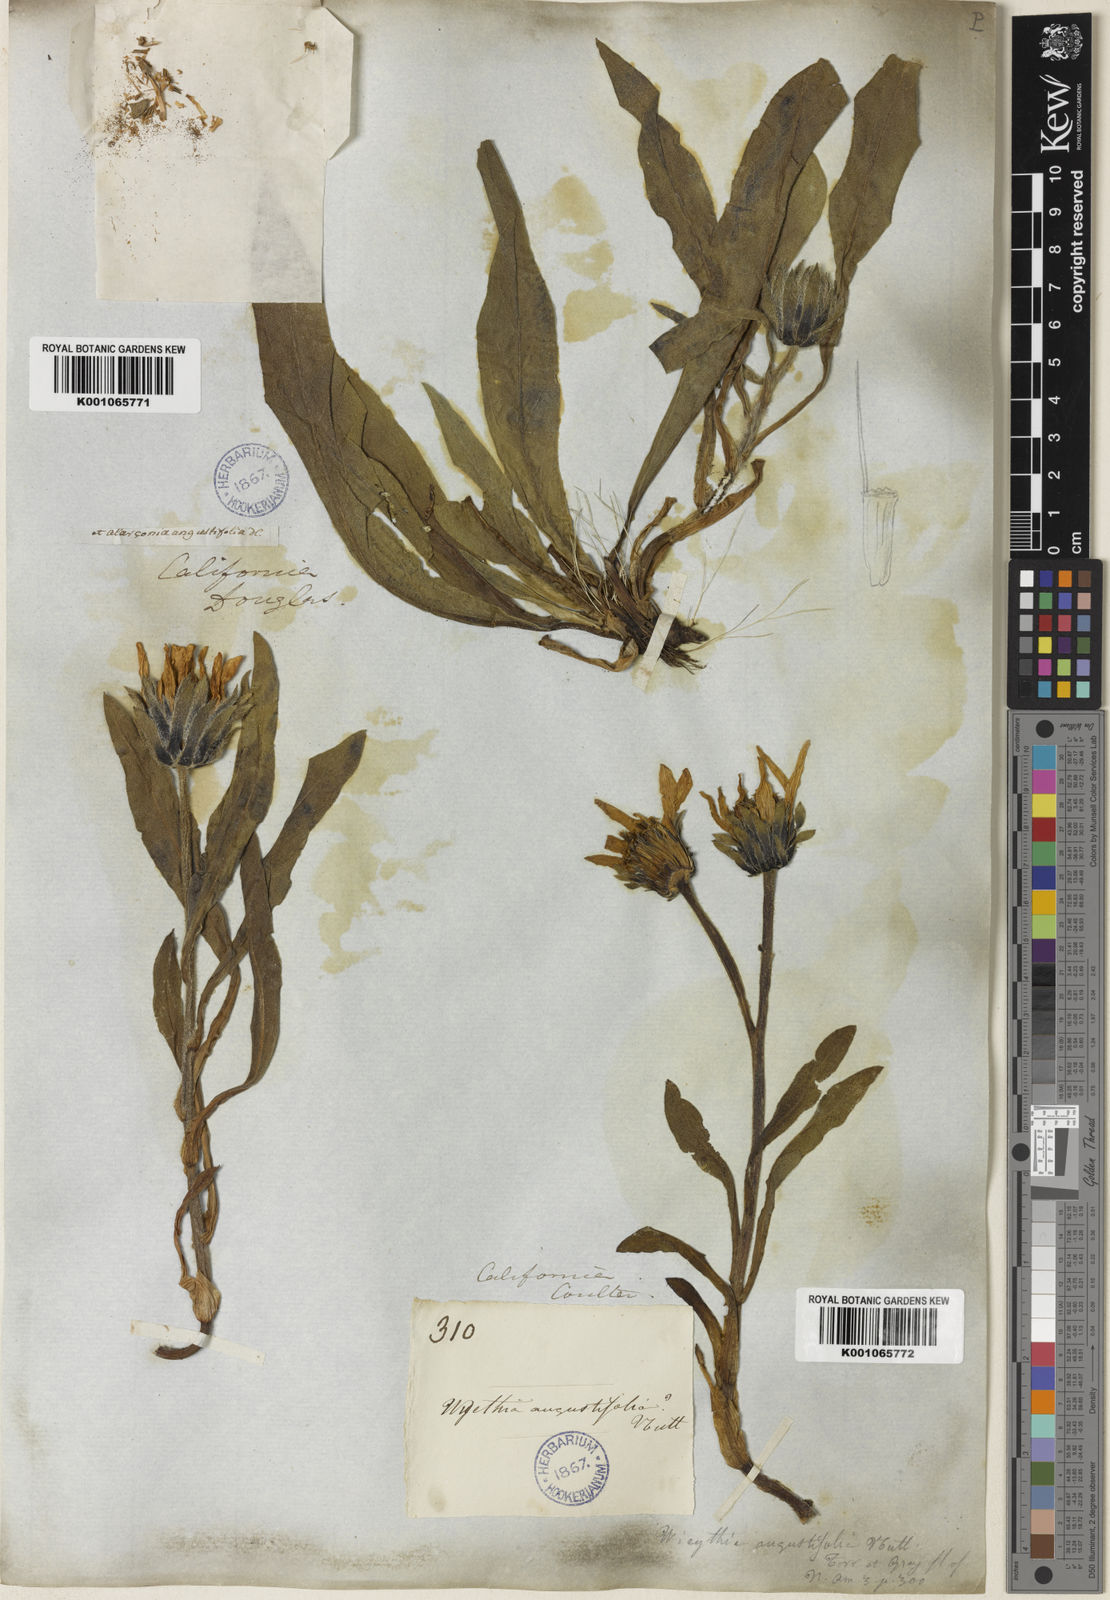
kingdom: Plantae
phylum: Tracheophyta
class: Magnoliopsida
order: Asterales
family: Asteraceae
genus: Wyethia
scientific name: Wyethia angustifolia
